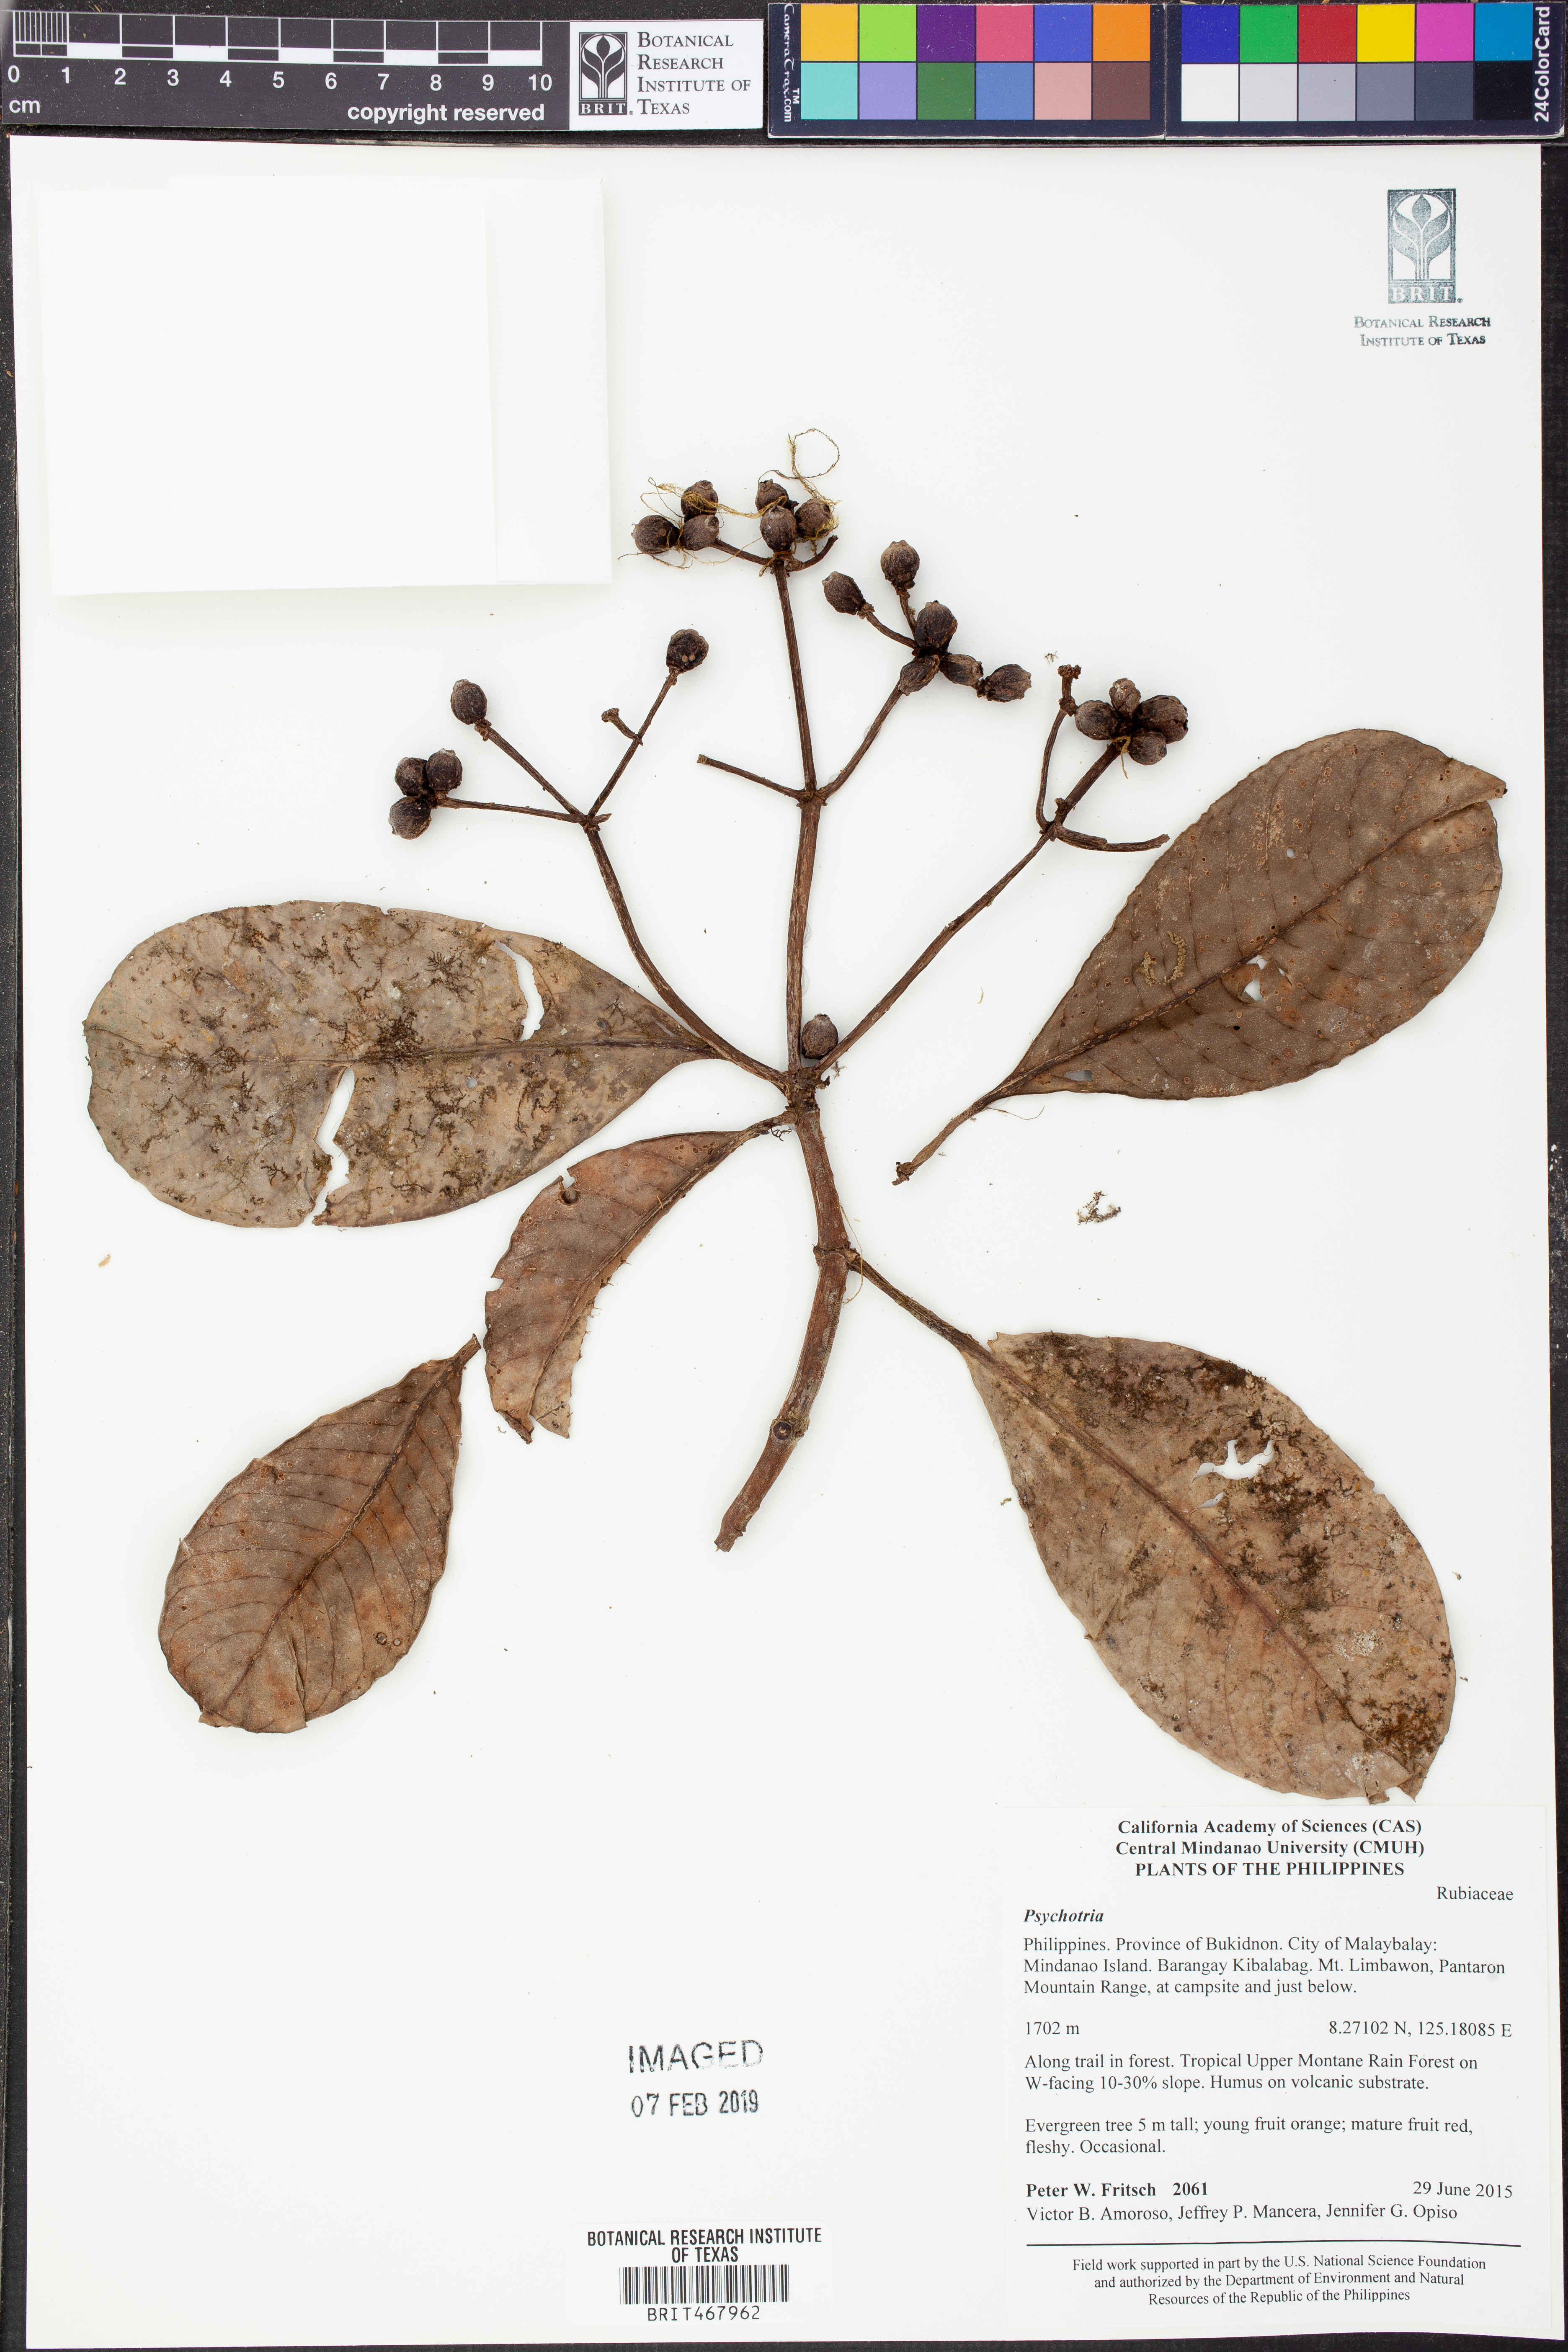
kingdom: Plantae
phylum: Tracheophyta
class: Magnoliopsida
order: Gentianales
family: Rubiaceae
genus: Psychotria
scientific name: Psychotria
